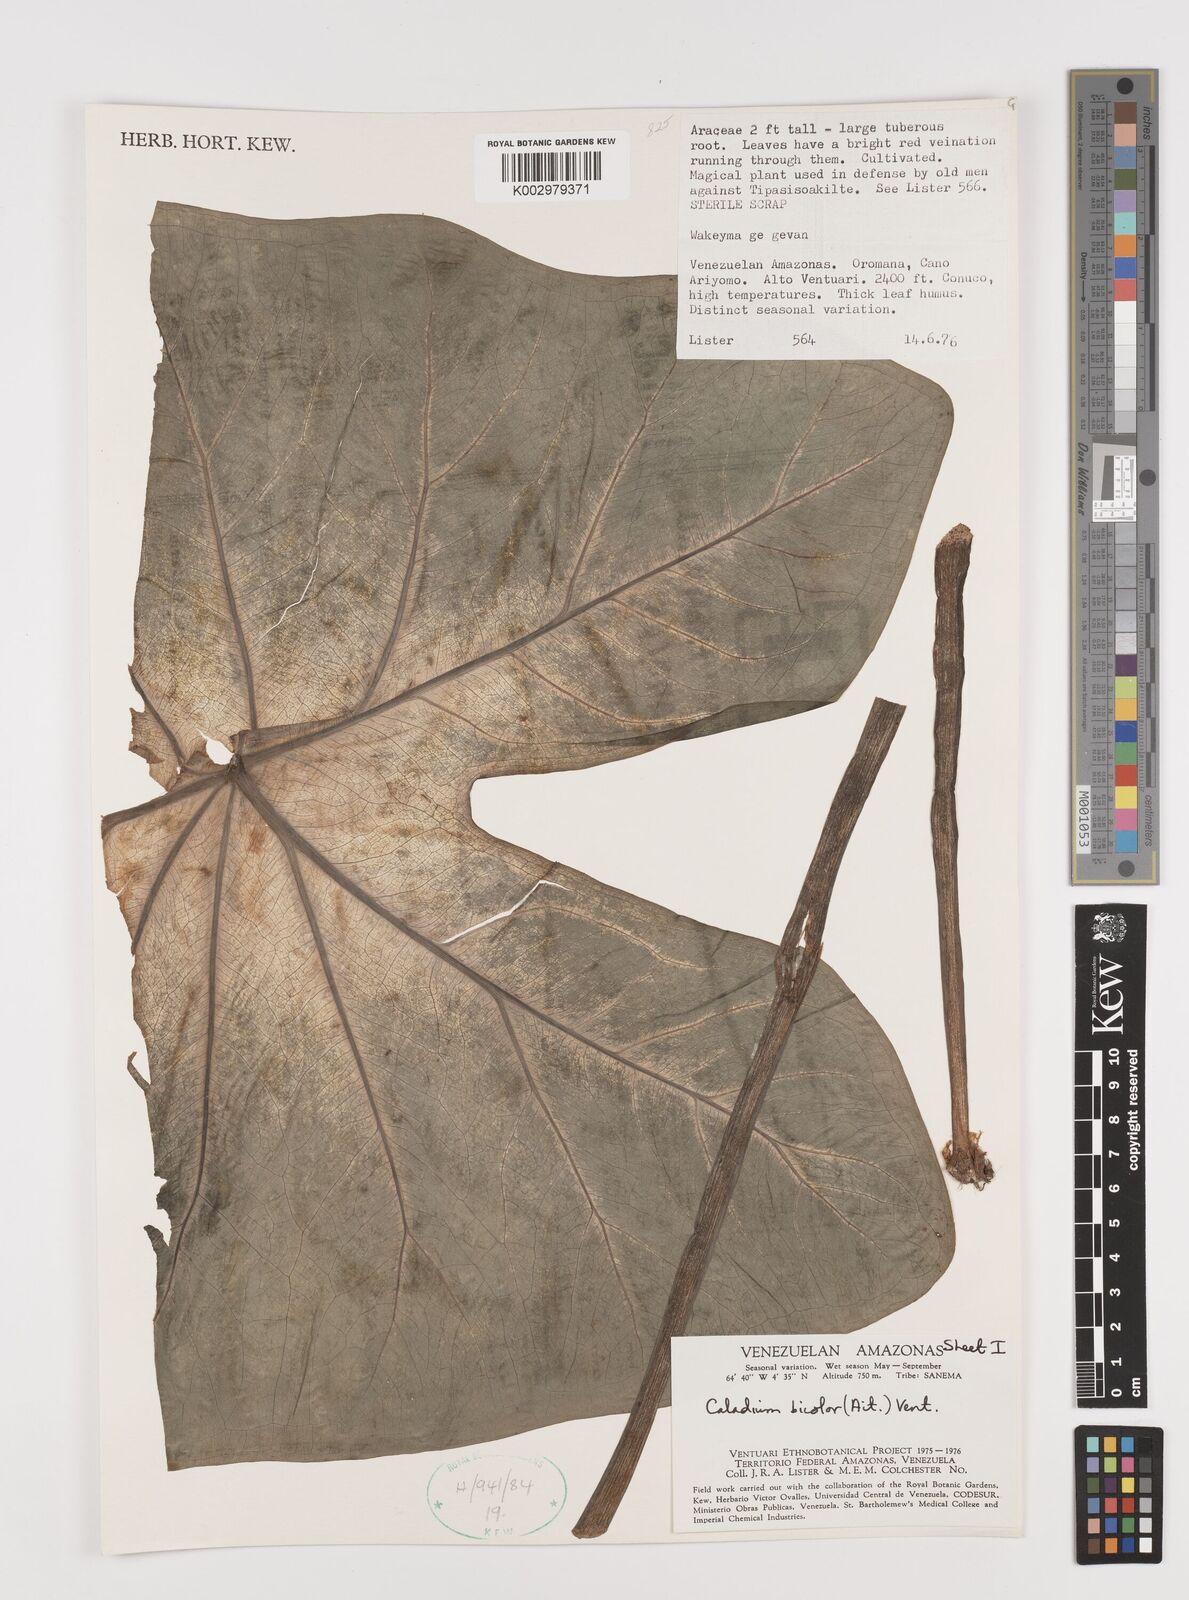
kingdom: Plantae
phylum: Tracheophyta
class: Liliopsida
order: Alismatales
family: Araceae
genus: Caladium
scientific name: Caladium bicolor
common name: Artist's pallet
